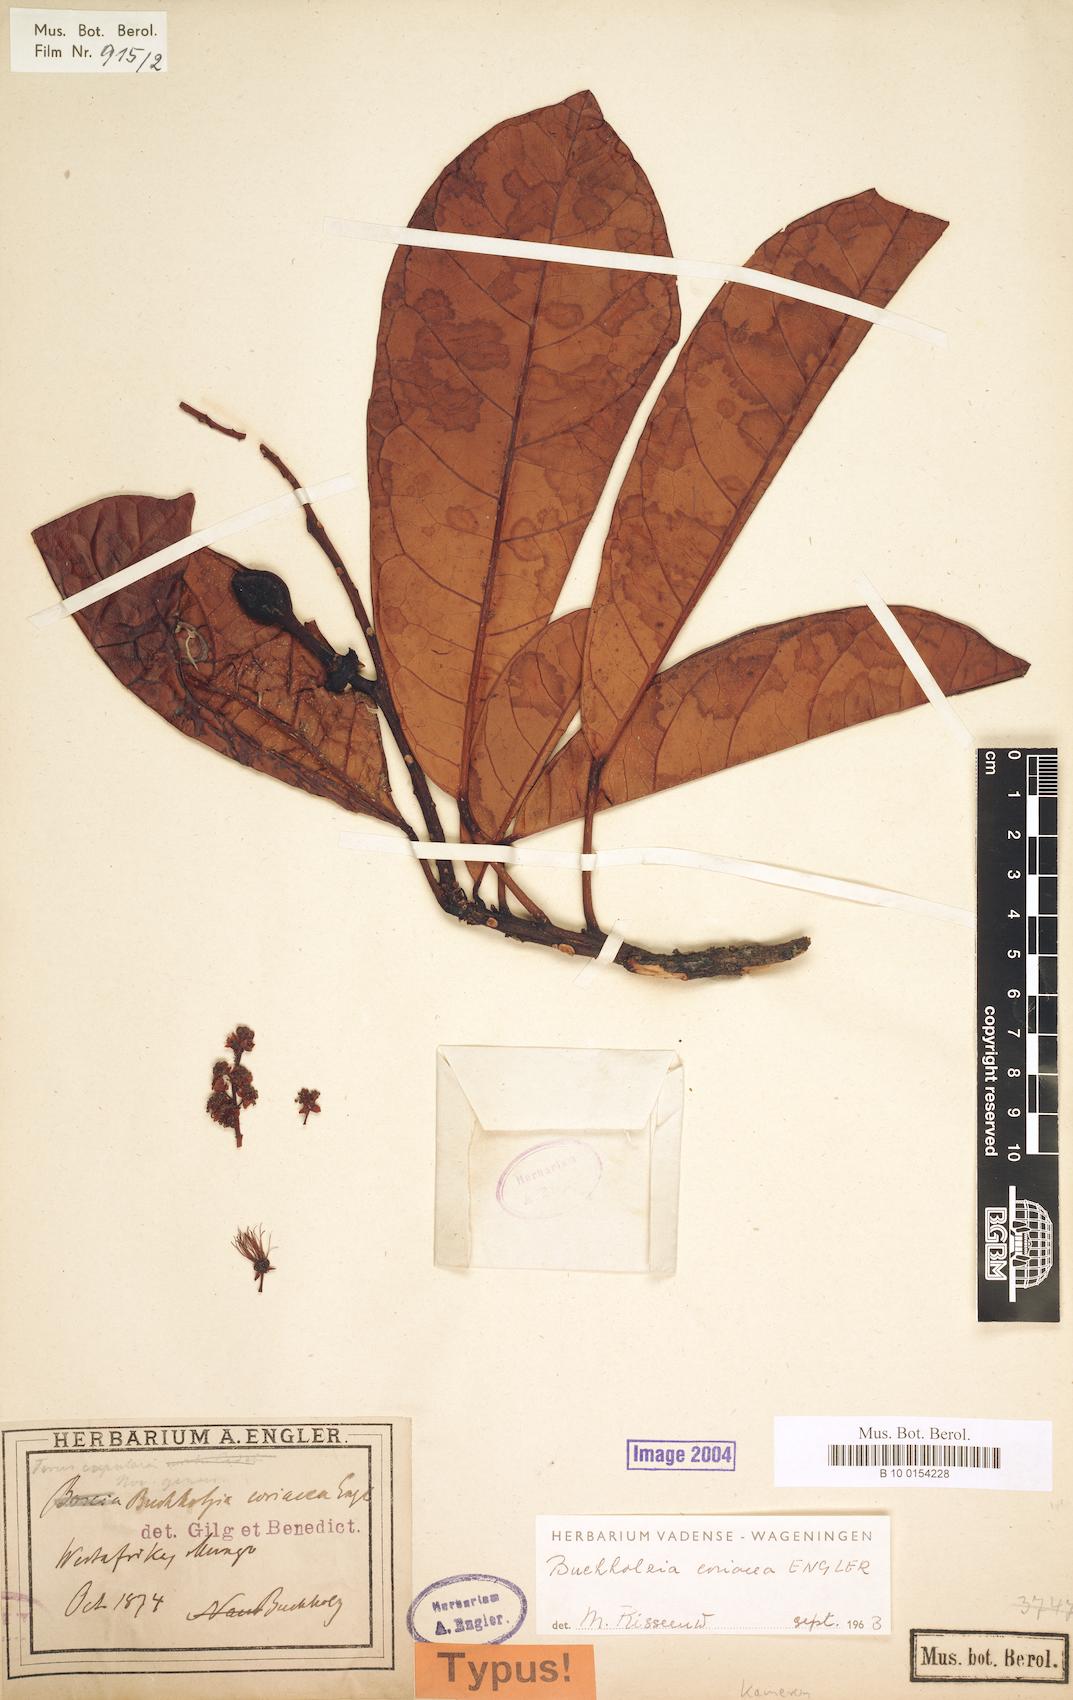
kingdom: Plantae
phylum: Tracheophyta
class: Magnoliopsida
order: Brassicales
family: Capparaceae
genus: Buchholzia
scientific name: Buchholzia coriacea
